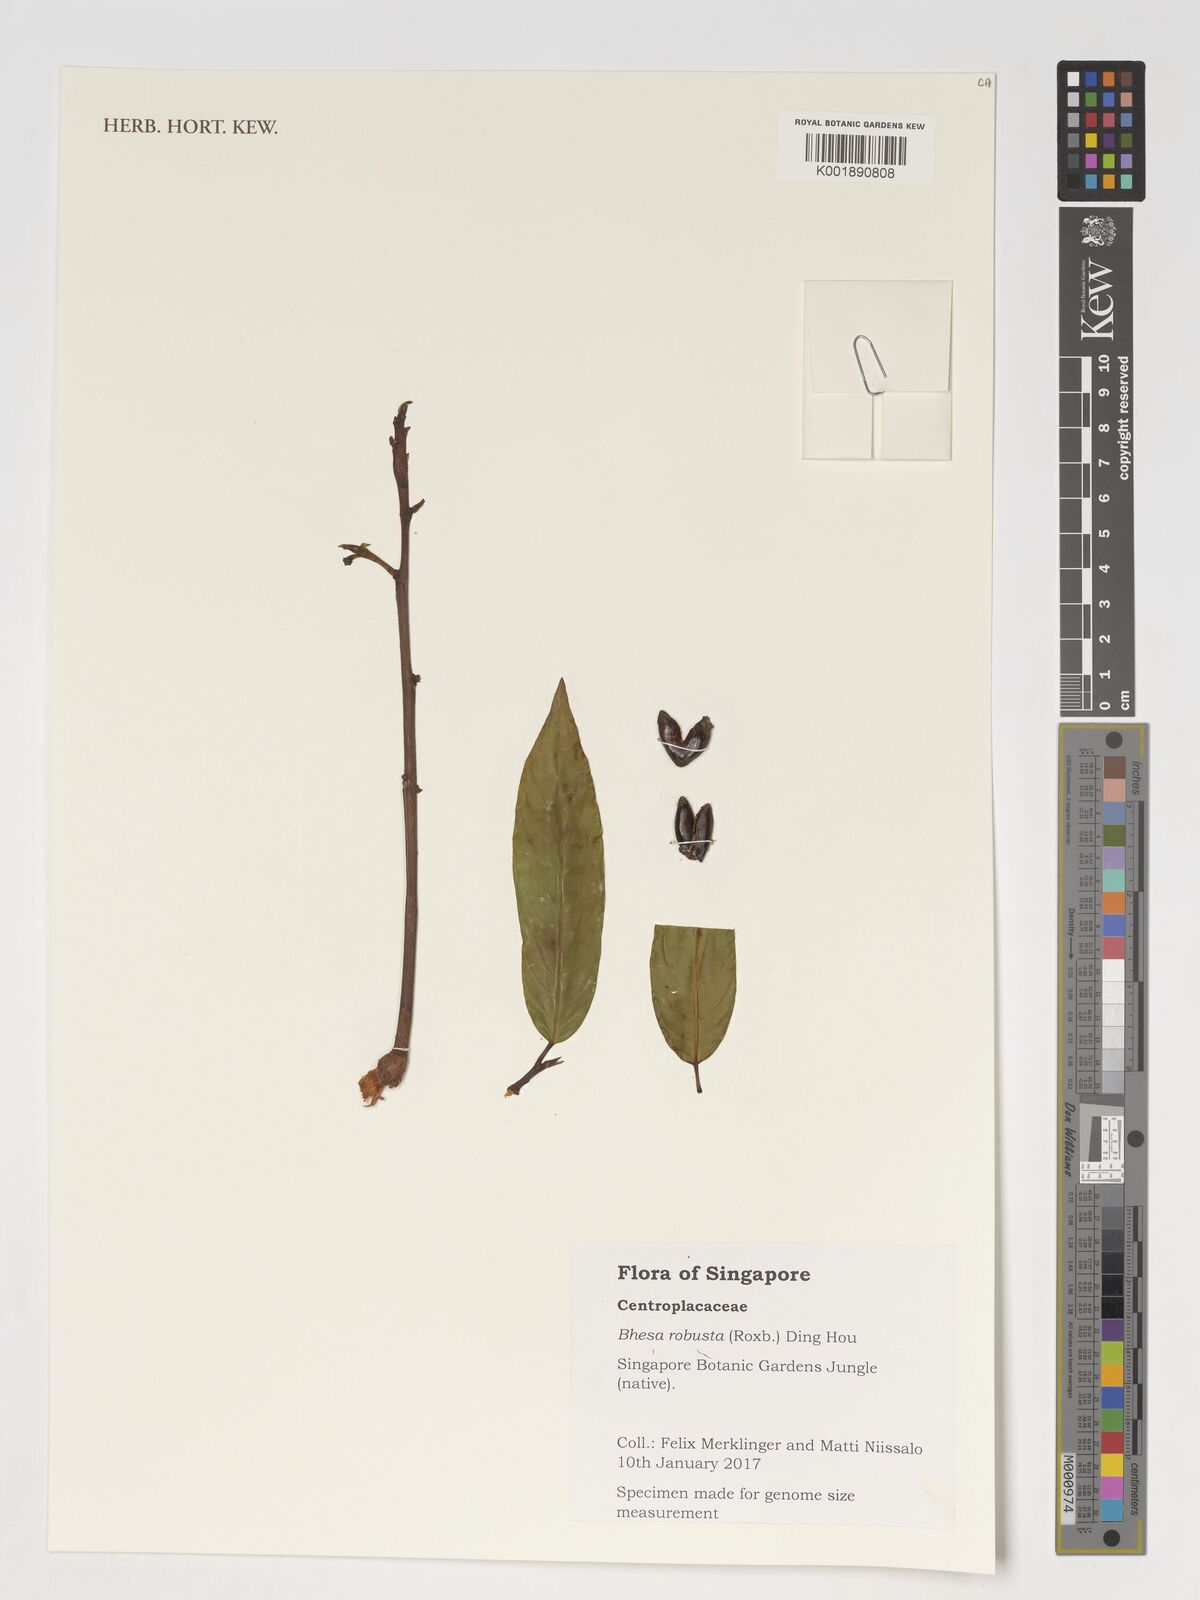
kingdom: Plantae
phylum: Tracheophyta
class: Magnoliopsida
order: Malpighiales
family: Centroplacaceae
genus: Bhesa
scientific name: Bhesa robusta
